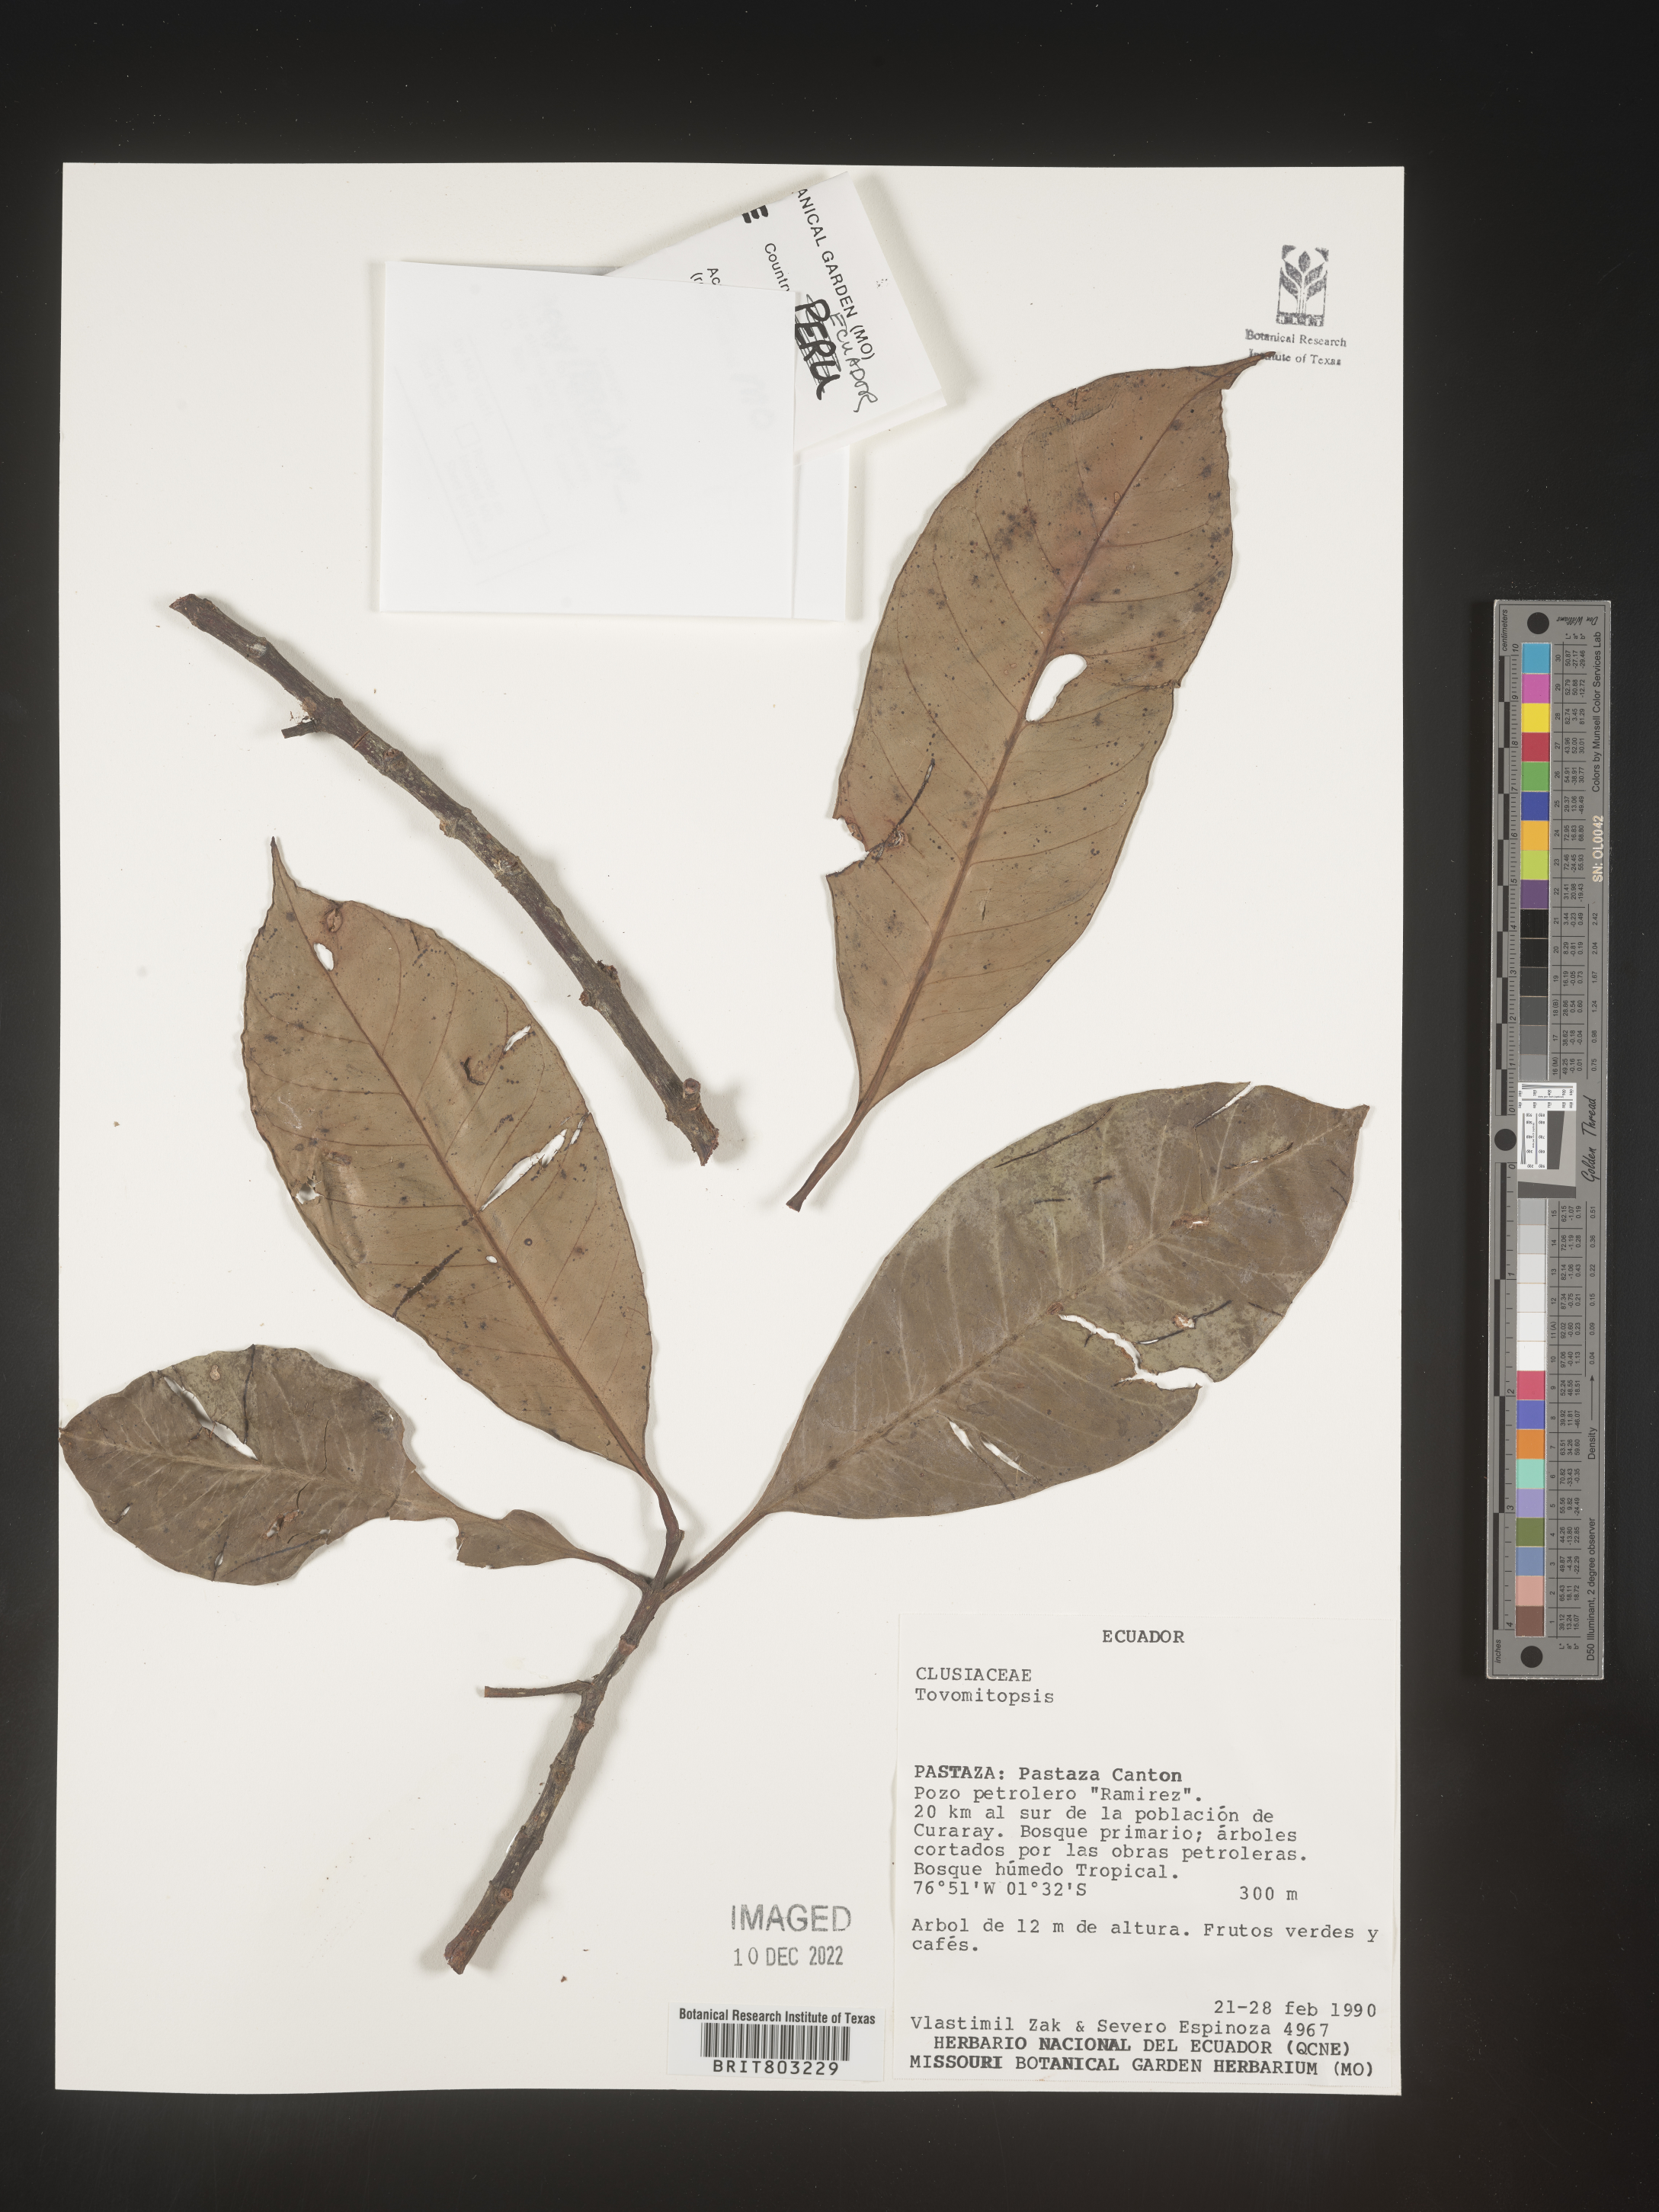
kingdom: Plantae
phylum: Tracheophyta
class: Magnoliopsida
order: Malpighiales
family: Clusiaceae
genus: Tovomita
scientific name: Tovomita
